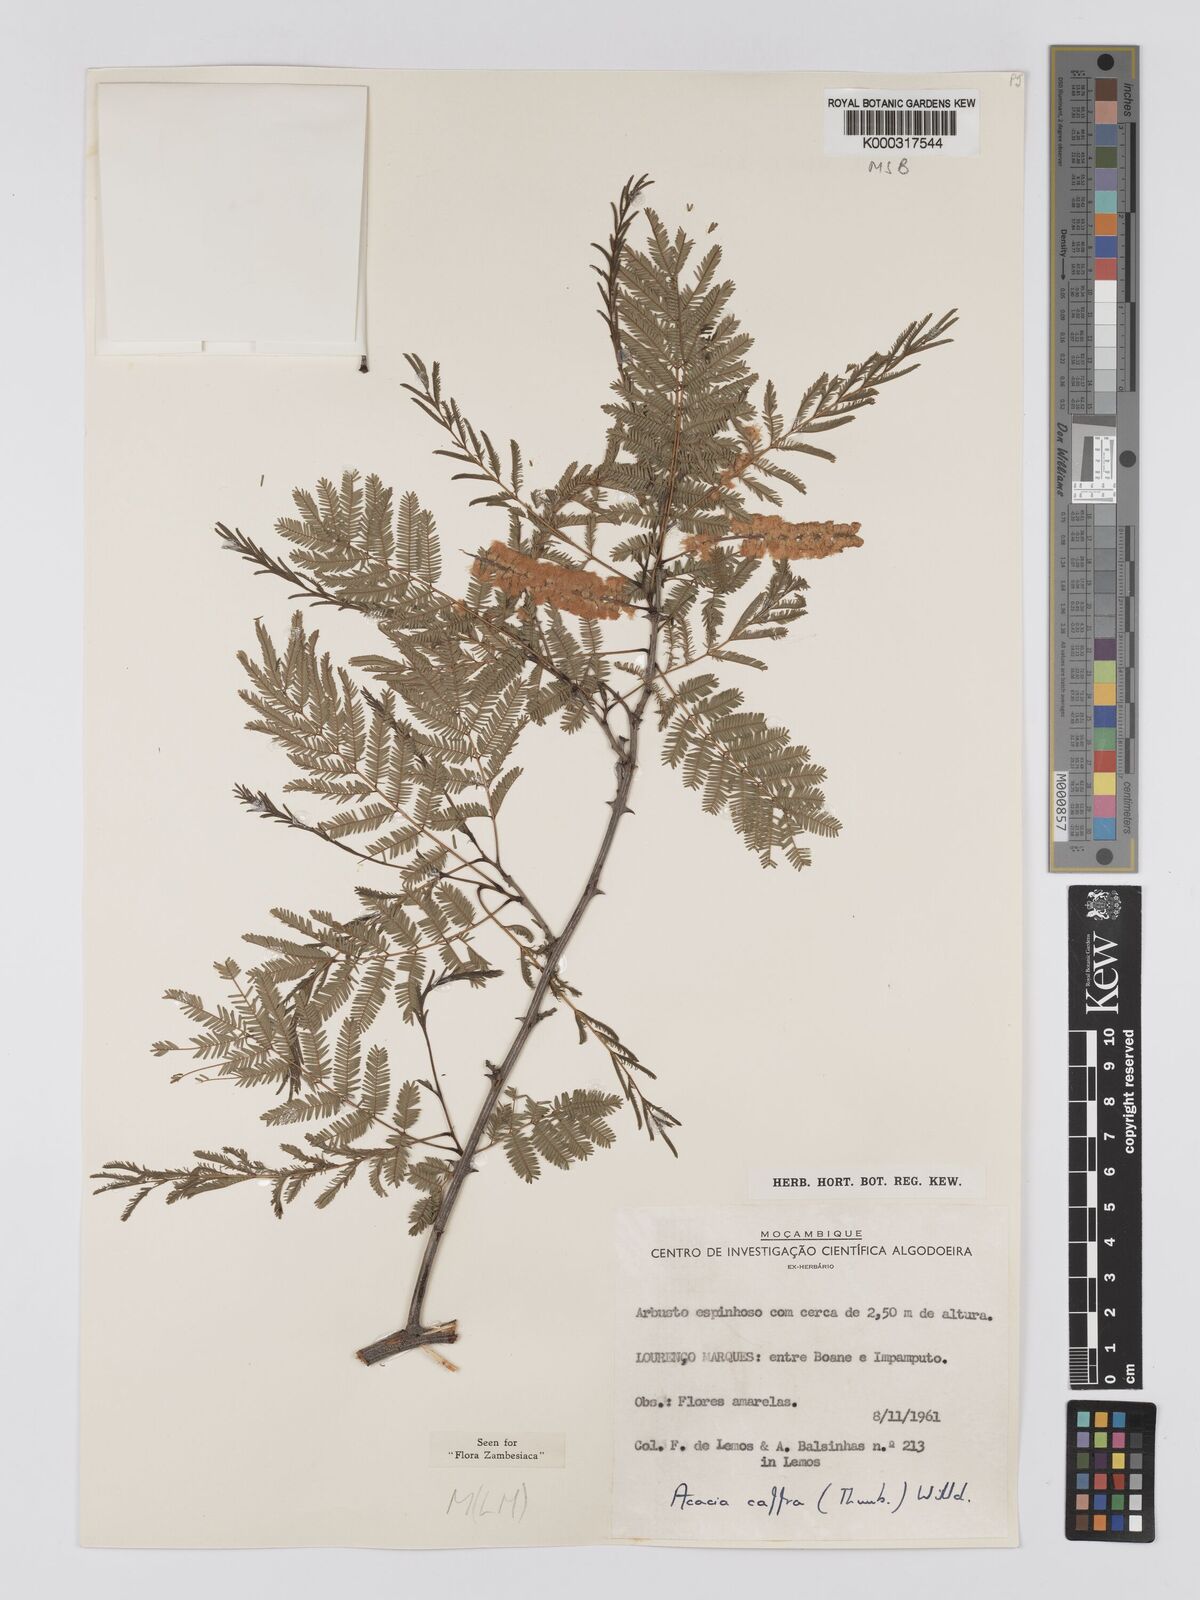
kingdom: Plantae
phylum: Tracheophyta
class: Magnoliopsida
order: Fabales
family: Fabaceae
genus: Senegalia
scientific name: Senegalia caffra
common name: Cat thorn
